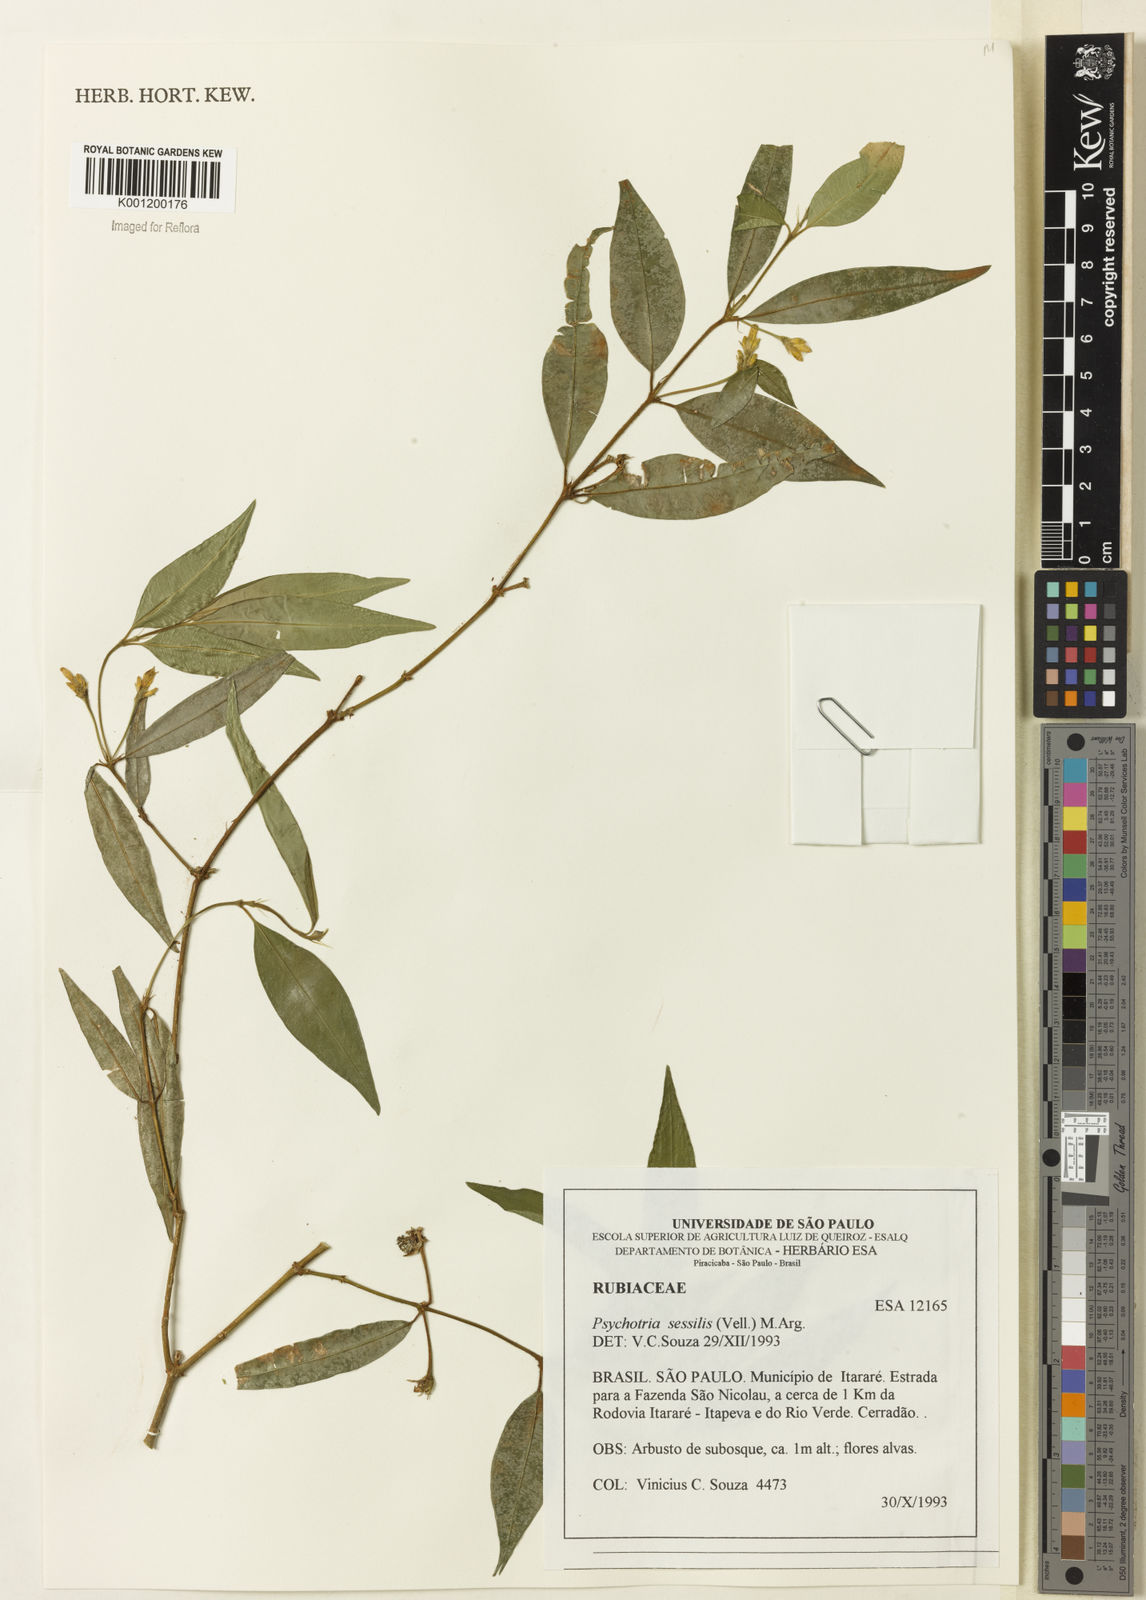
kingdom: Plantae
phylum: Tracheophyta
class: Magnoliopsida
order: Gentianales
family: Rubiaceae
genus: Rudgea
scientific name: Rudgea sessilis
